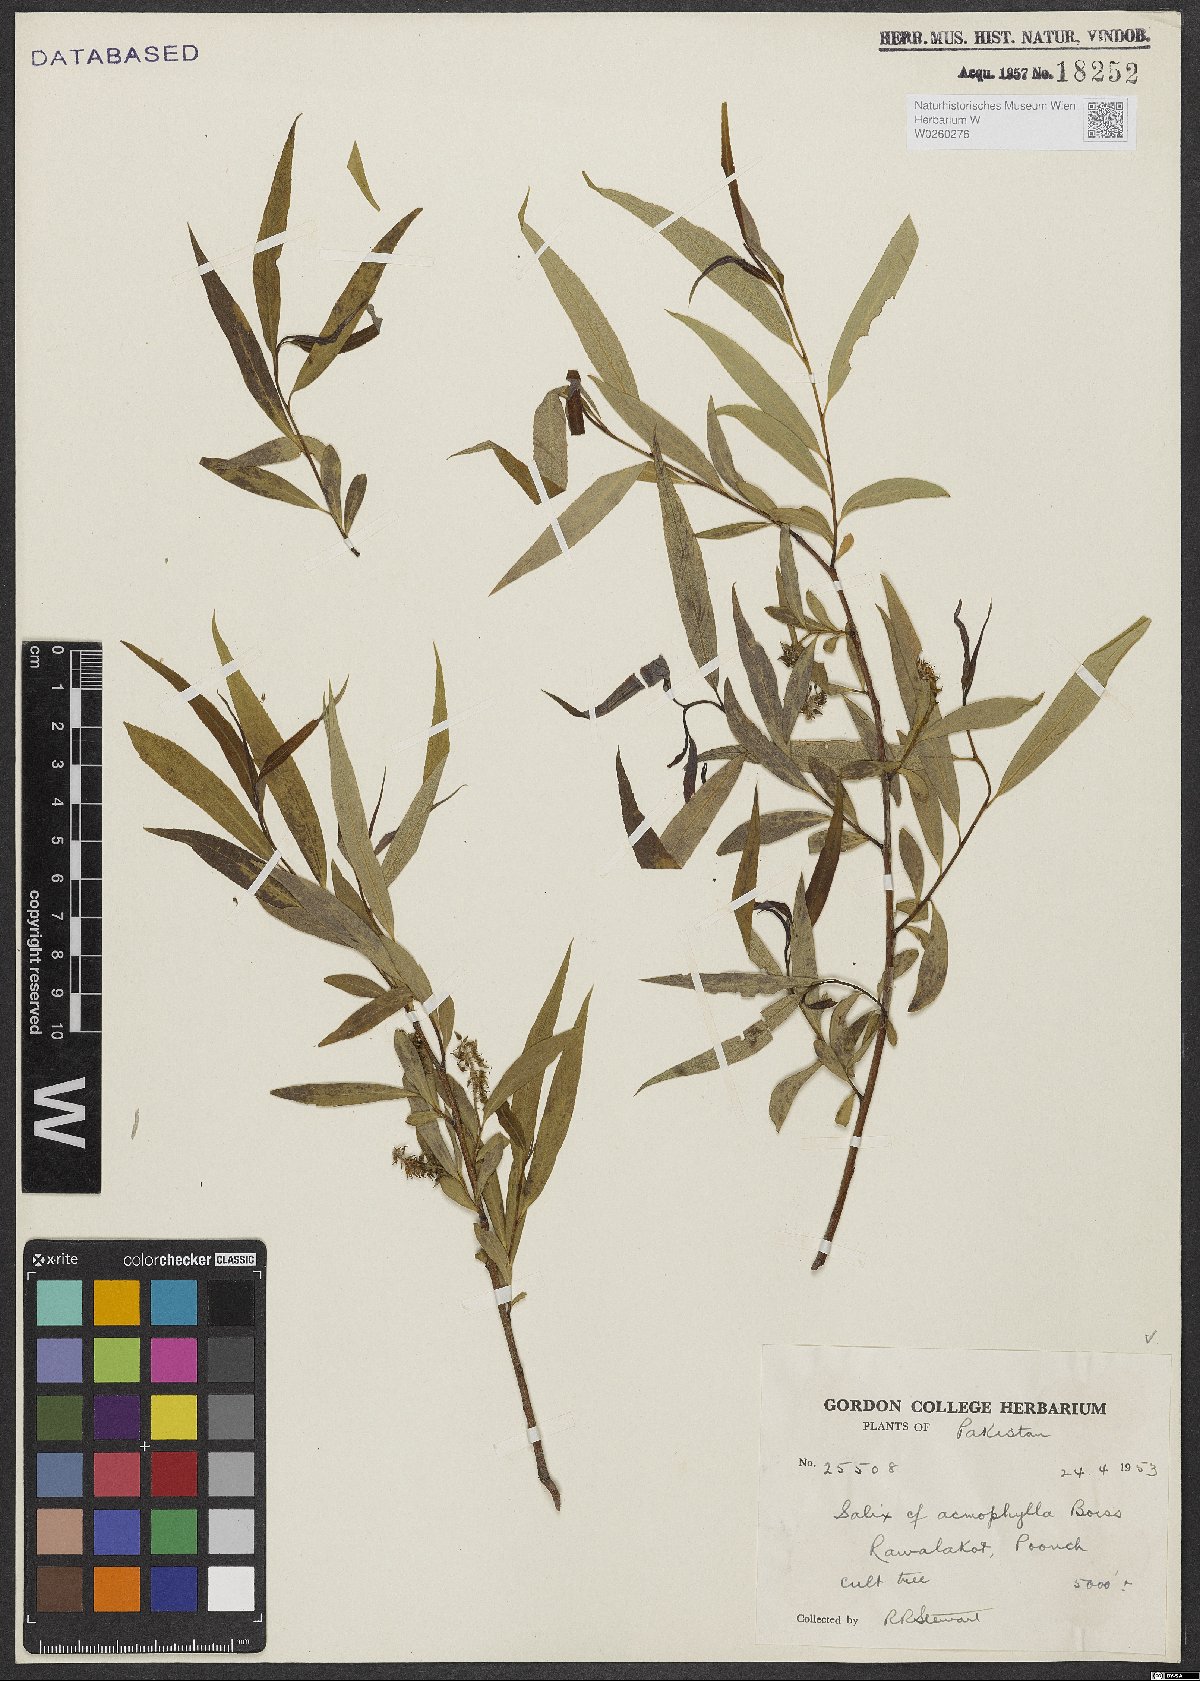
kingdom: Plantae
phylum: Tracheophyta
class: Magnoliopsida
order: Malpighiales
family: Salicaceae
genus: Salix
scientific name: Salix acmophylla
